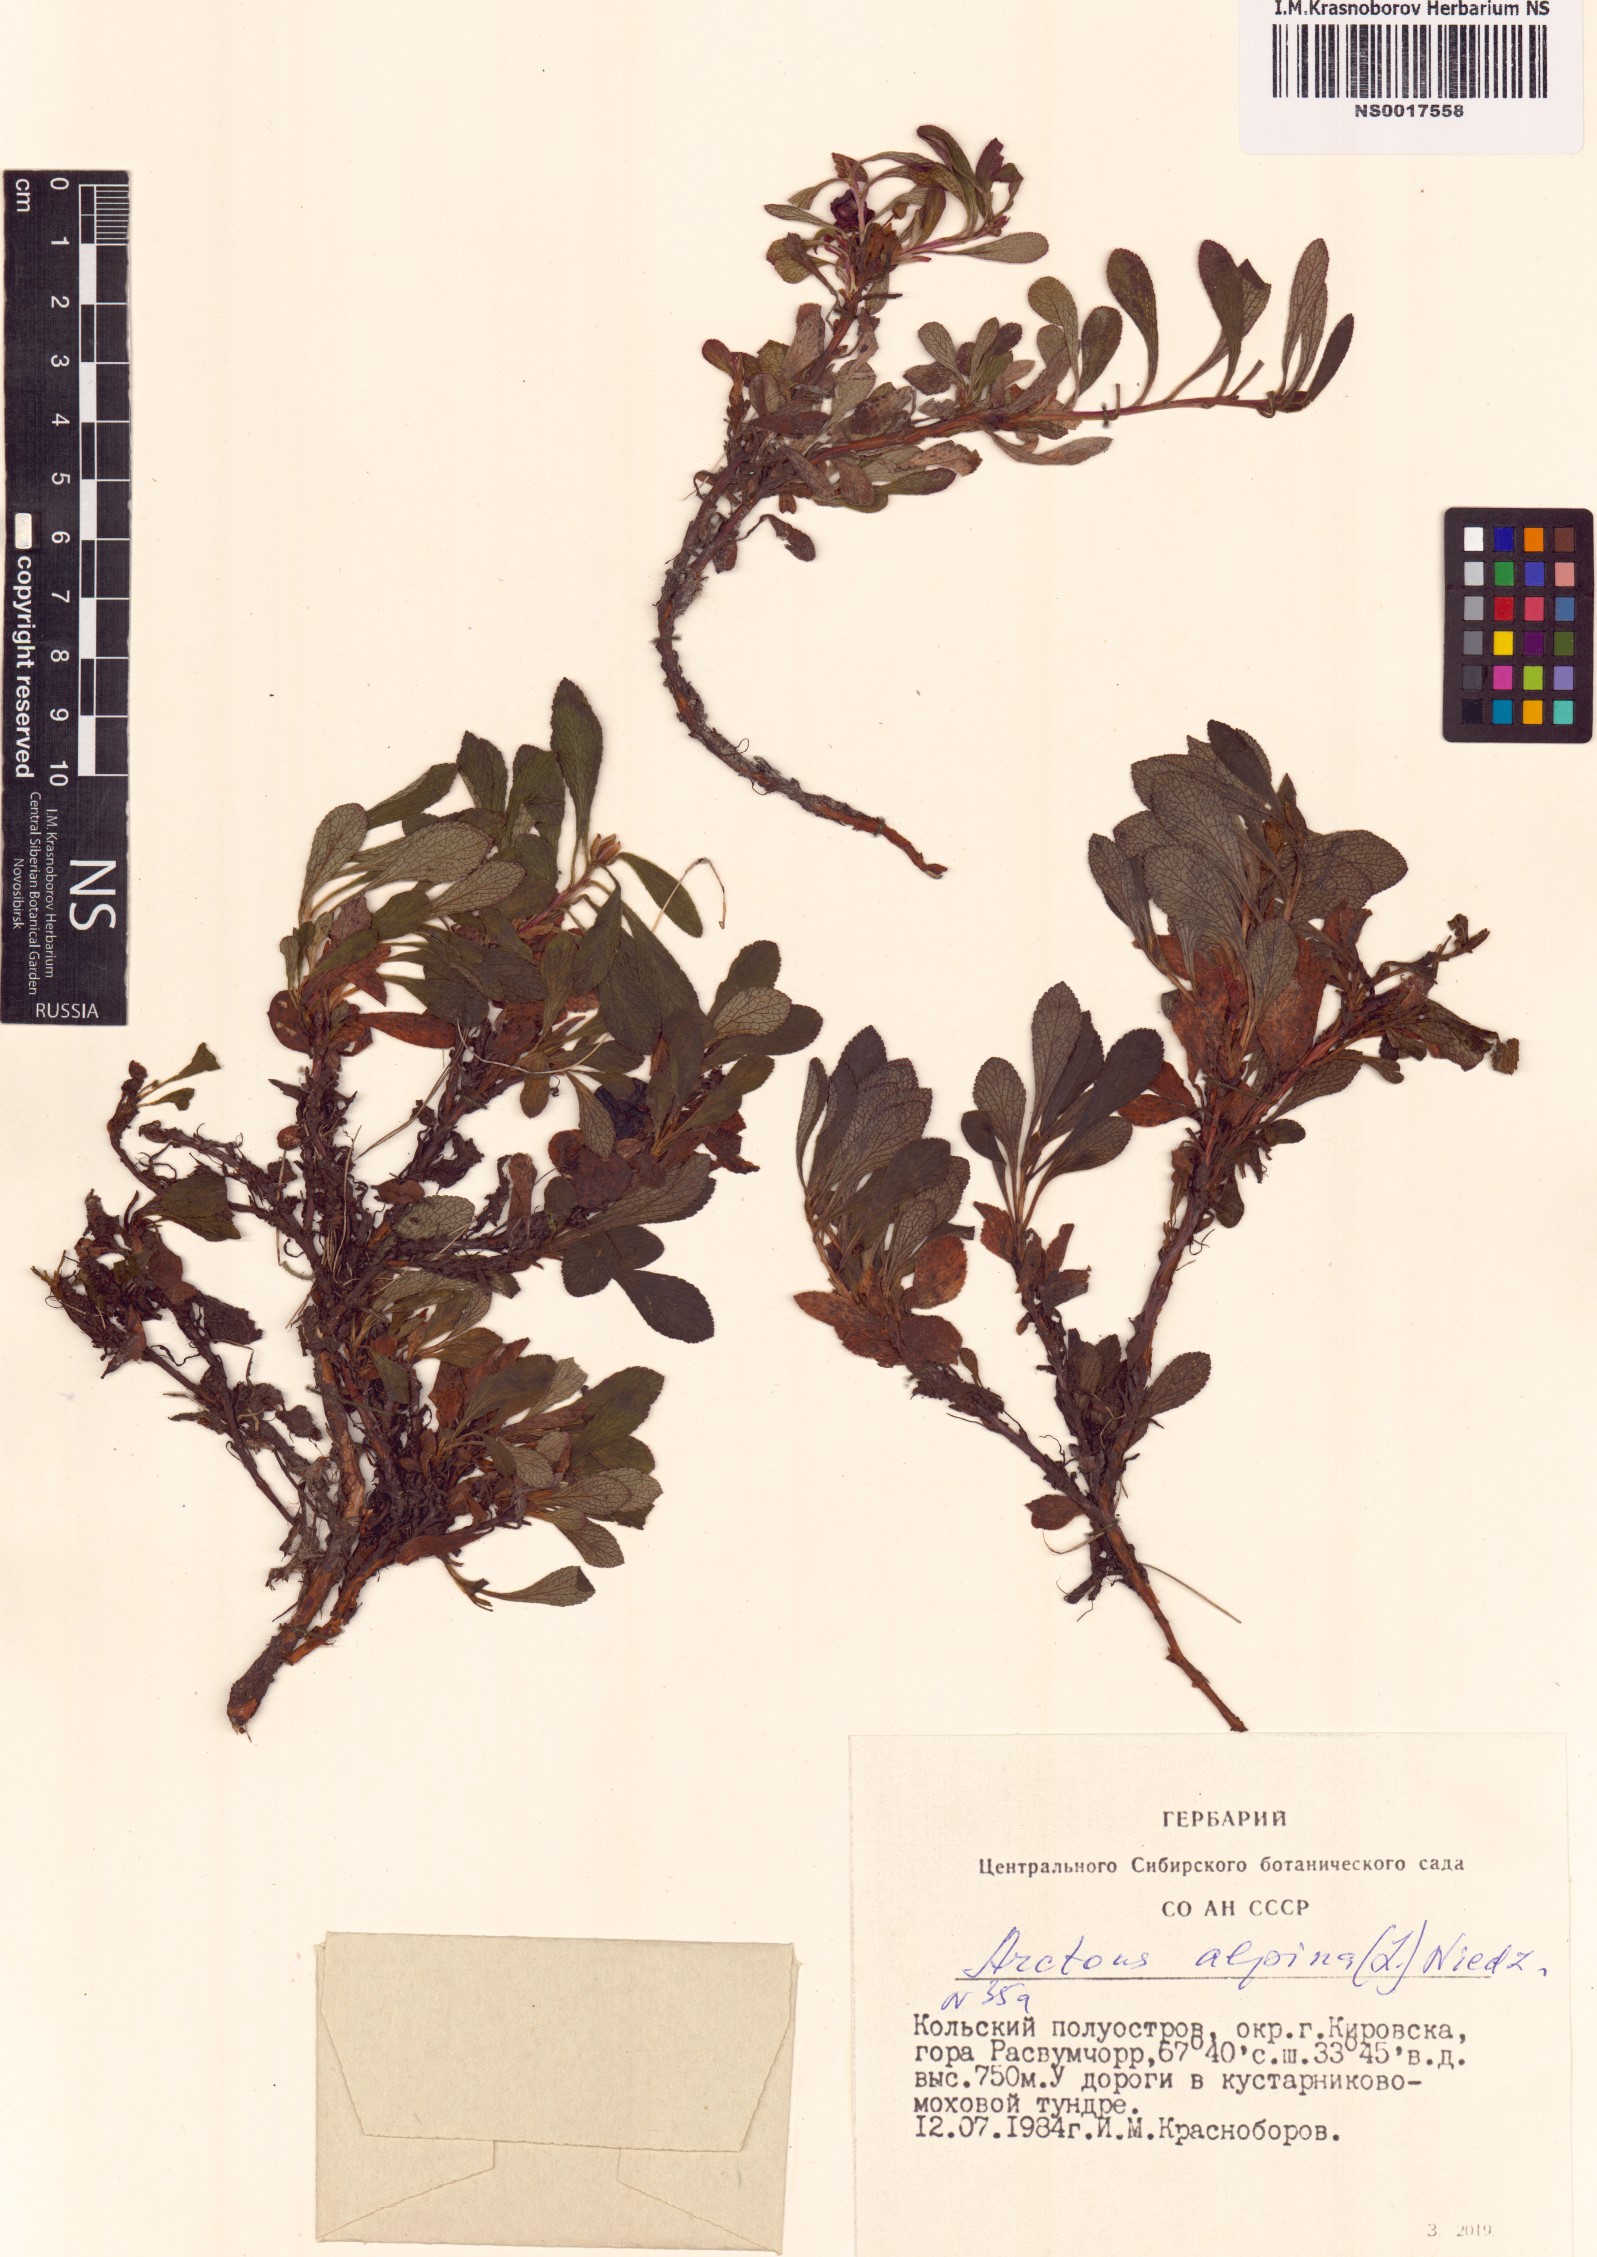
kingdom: Plantae
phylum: Tracheophyta
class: Magnoliopsida
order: Ericales
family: Ericaceae
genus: Arctostaphylos
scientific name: Arctostaphylos alpinus
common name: Alpine bearberry
